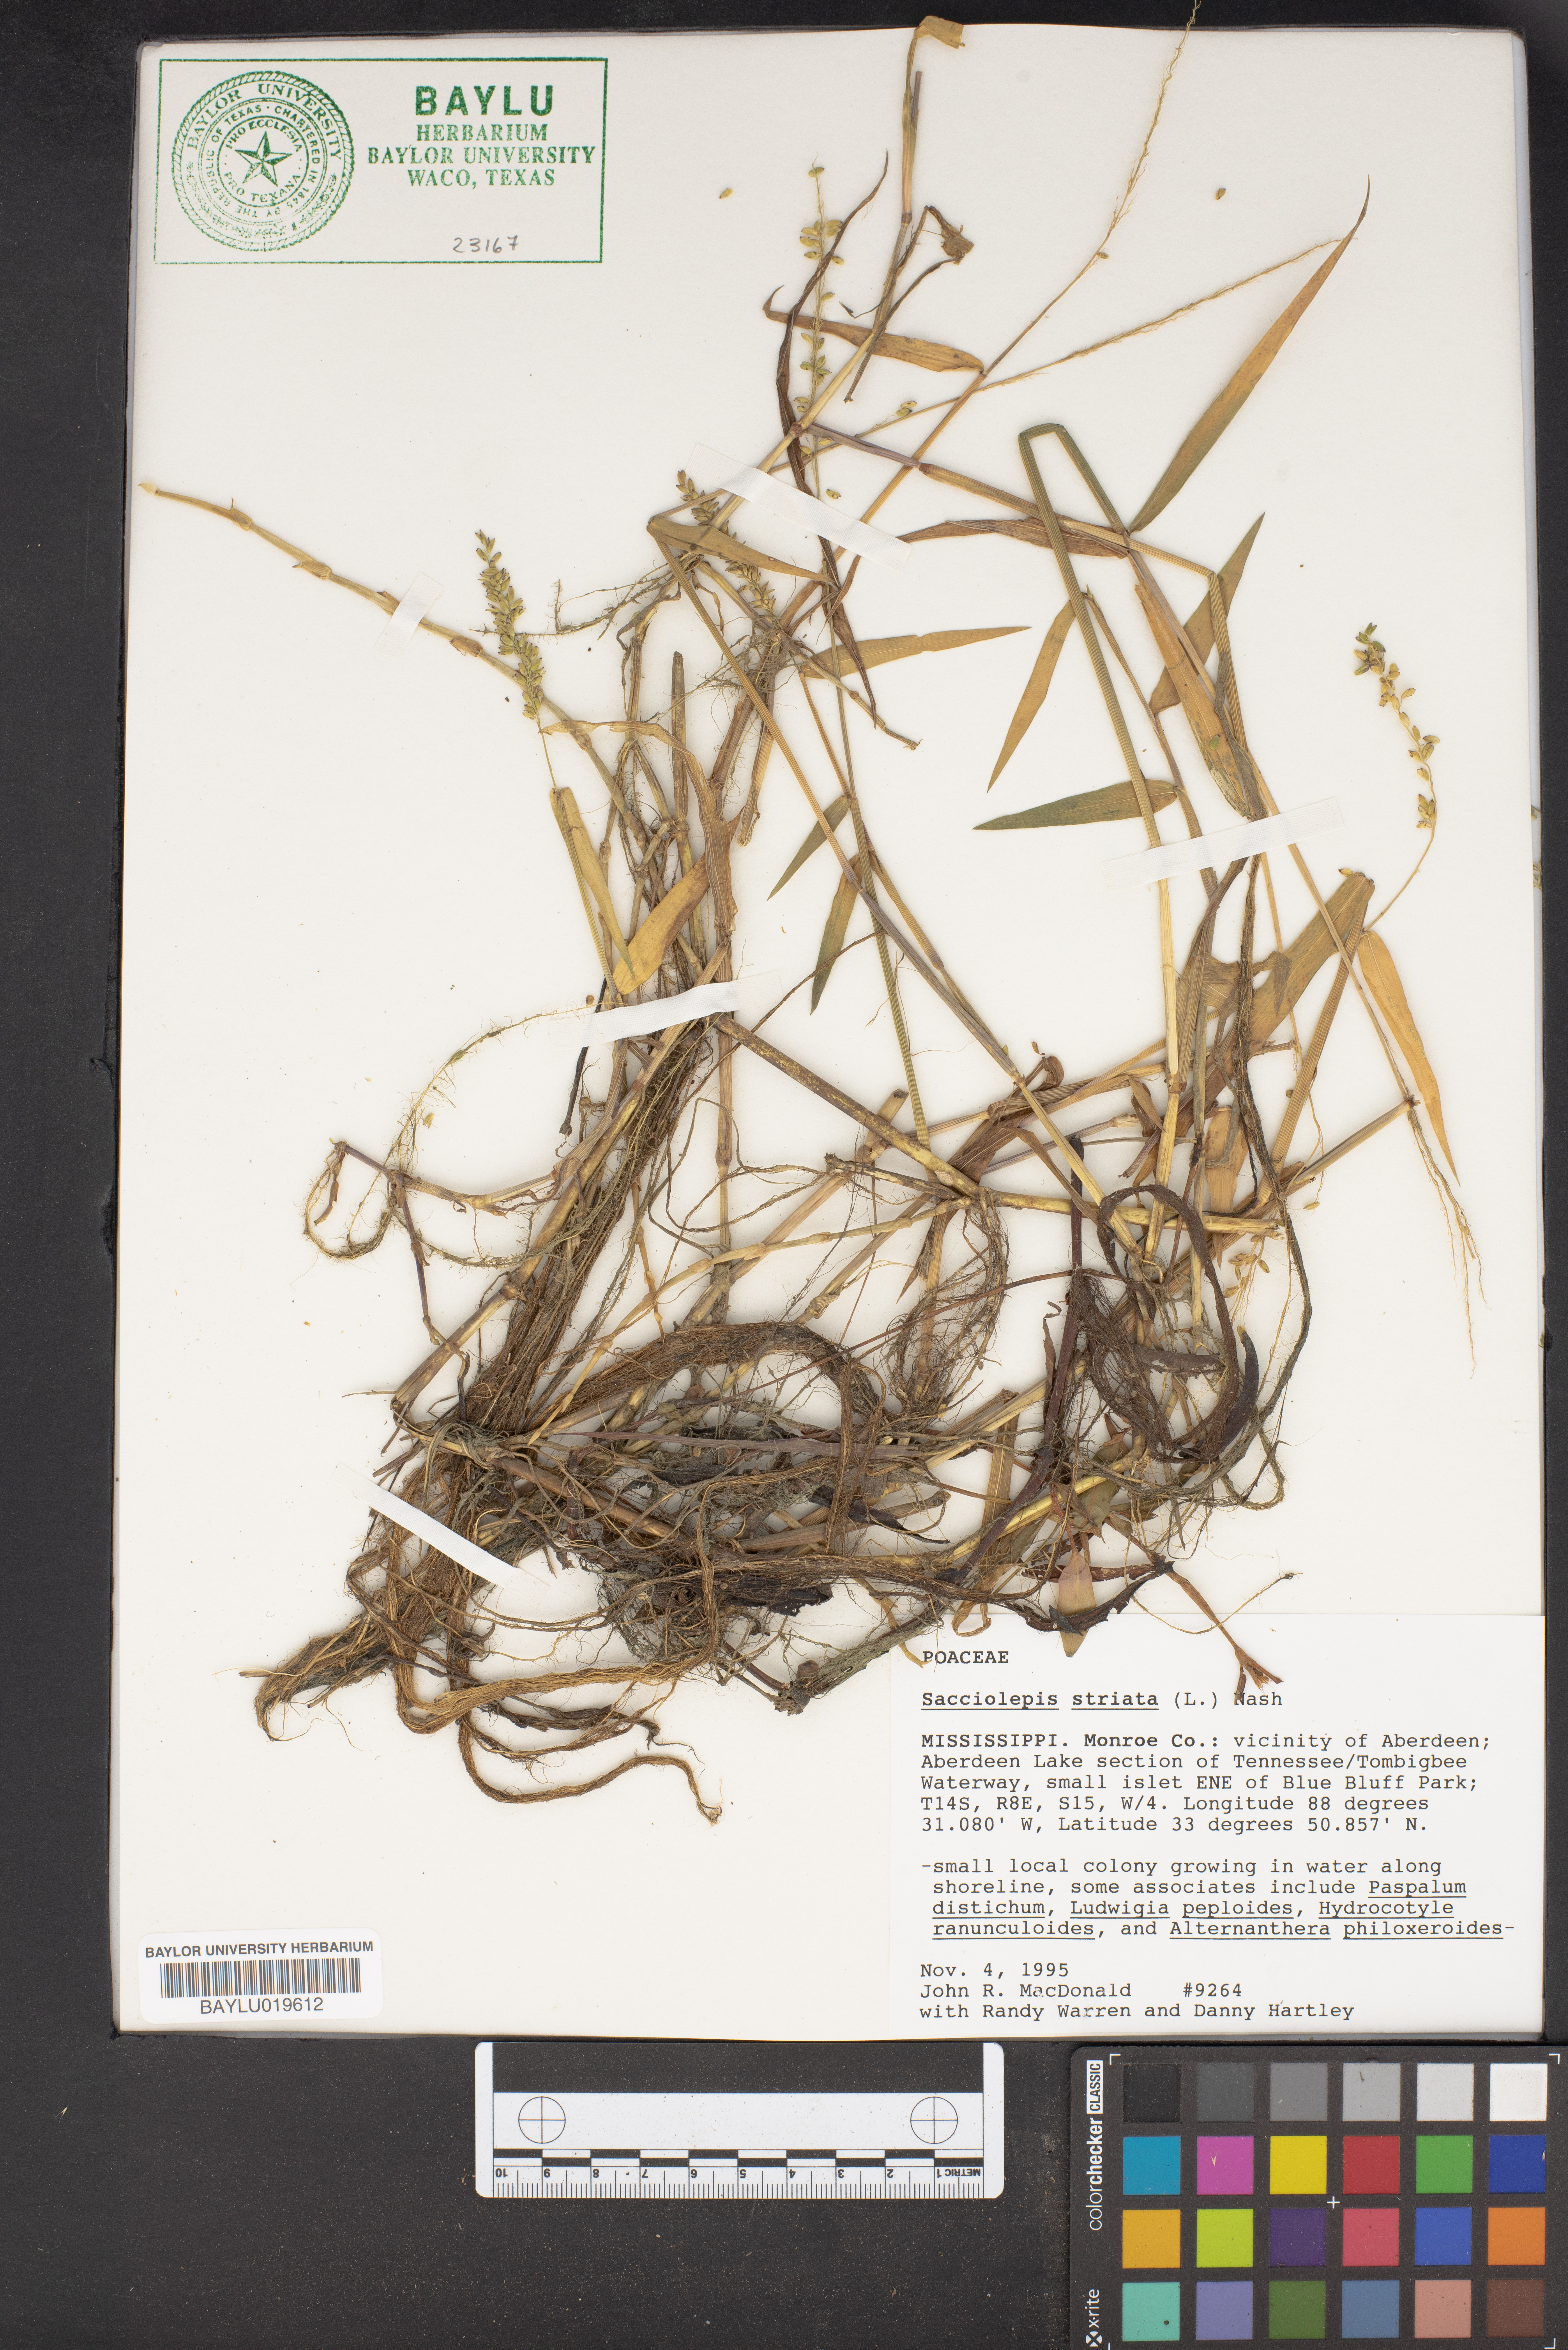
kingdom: Plantae
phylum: Tracheophyta
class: Liliopsida
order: Poales
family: Poaceae
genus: Sacciolepis
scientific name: Sacciolepis striata
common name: American cupscale
